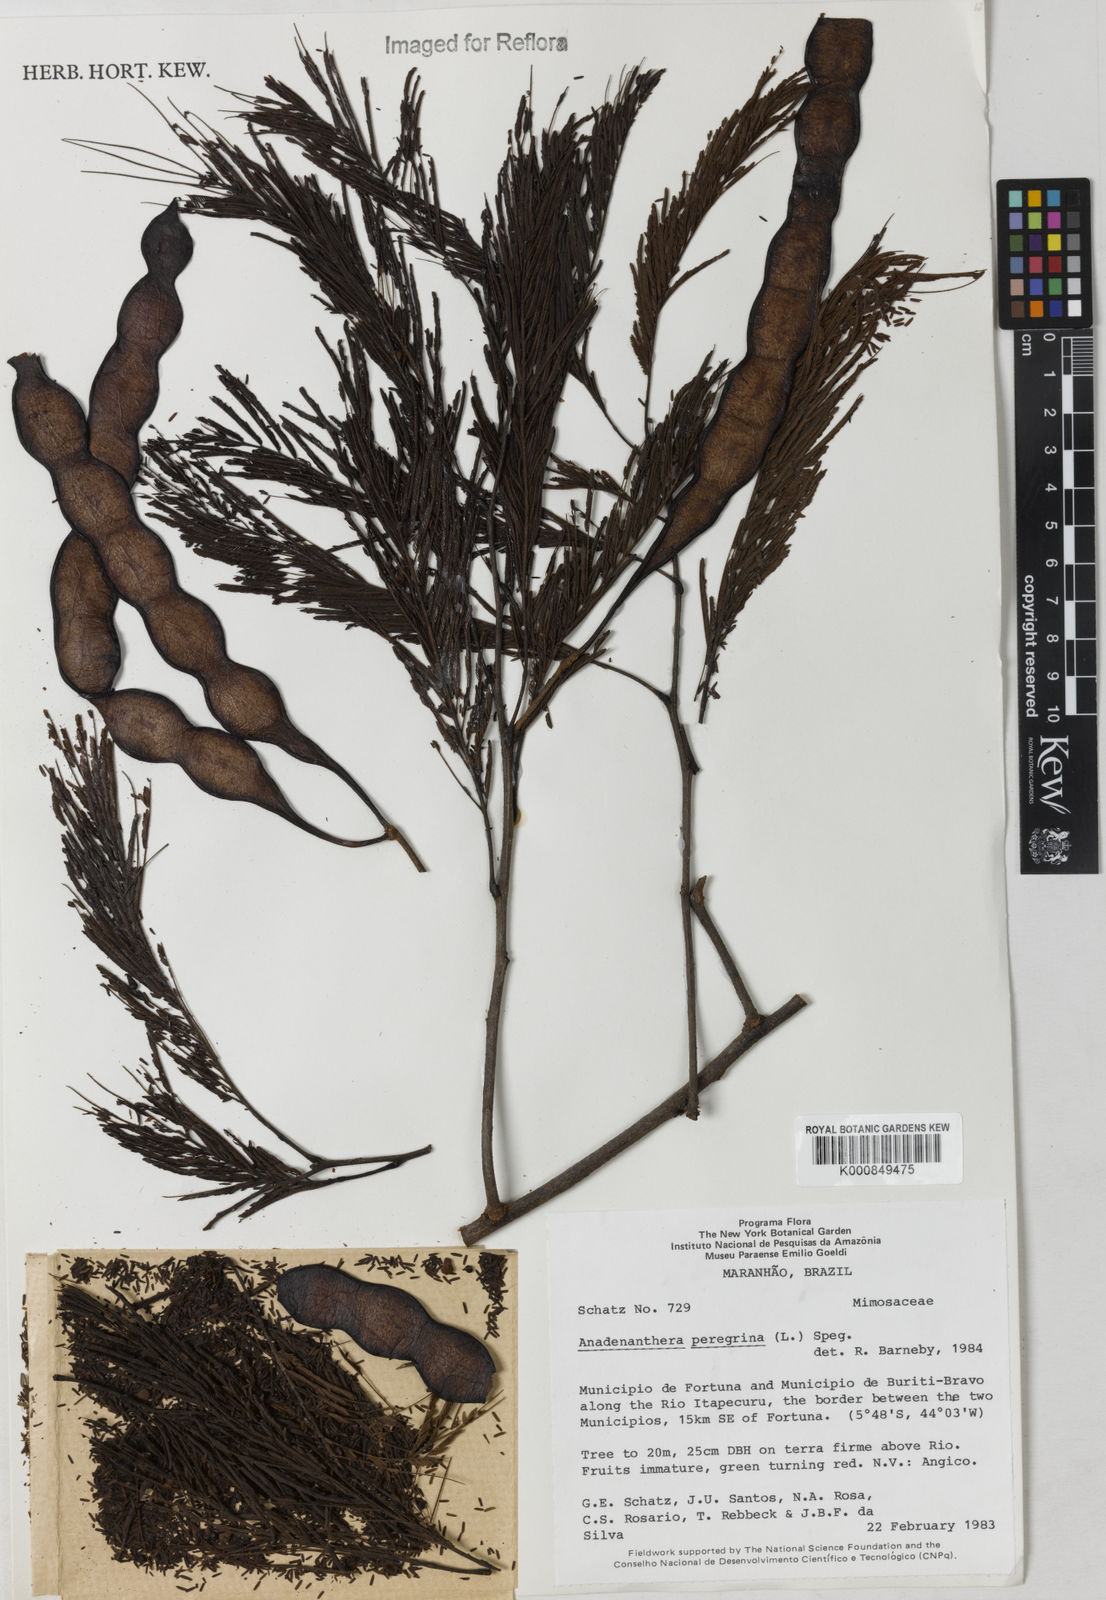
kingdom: Plantae
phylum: Tracheophyta
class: Magnoliopsida
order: Fabales
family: Fabaceae
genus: Anadenanthera
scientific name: Anadenanthera peregrina
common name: Cohoba
